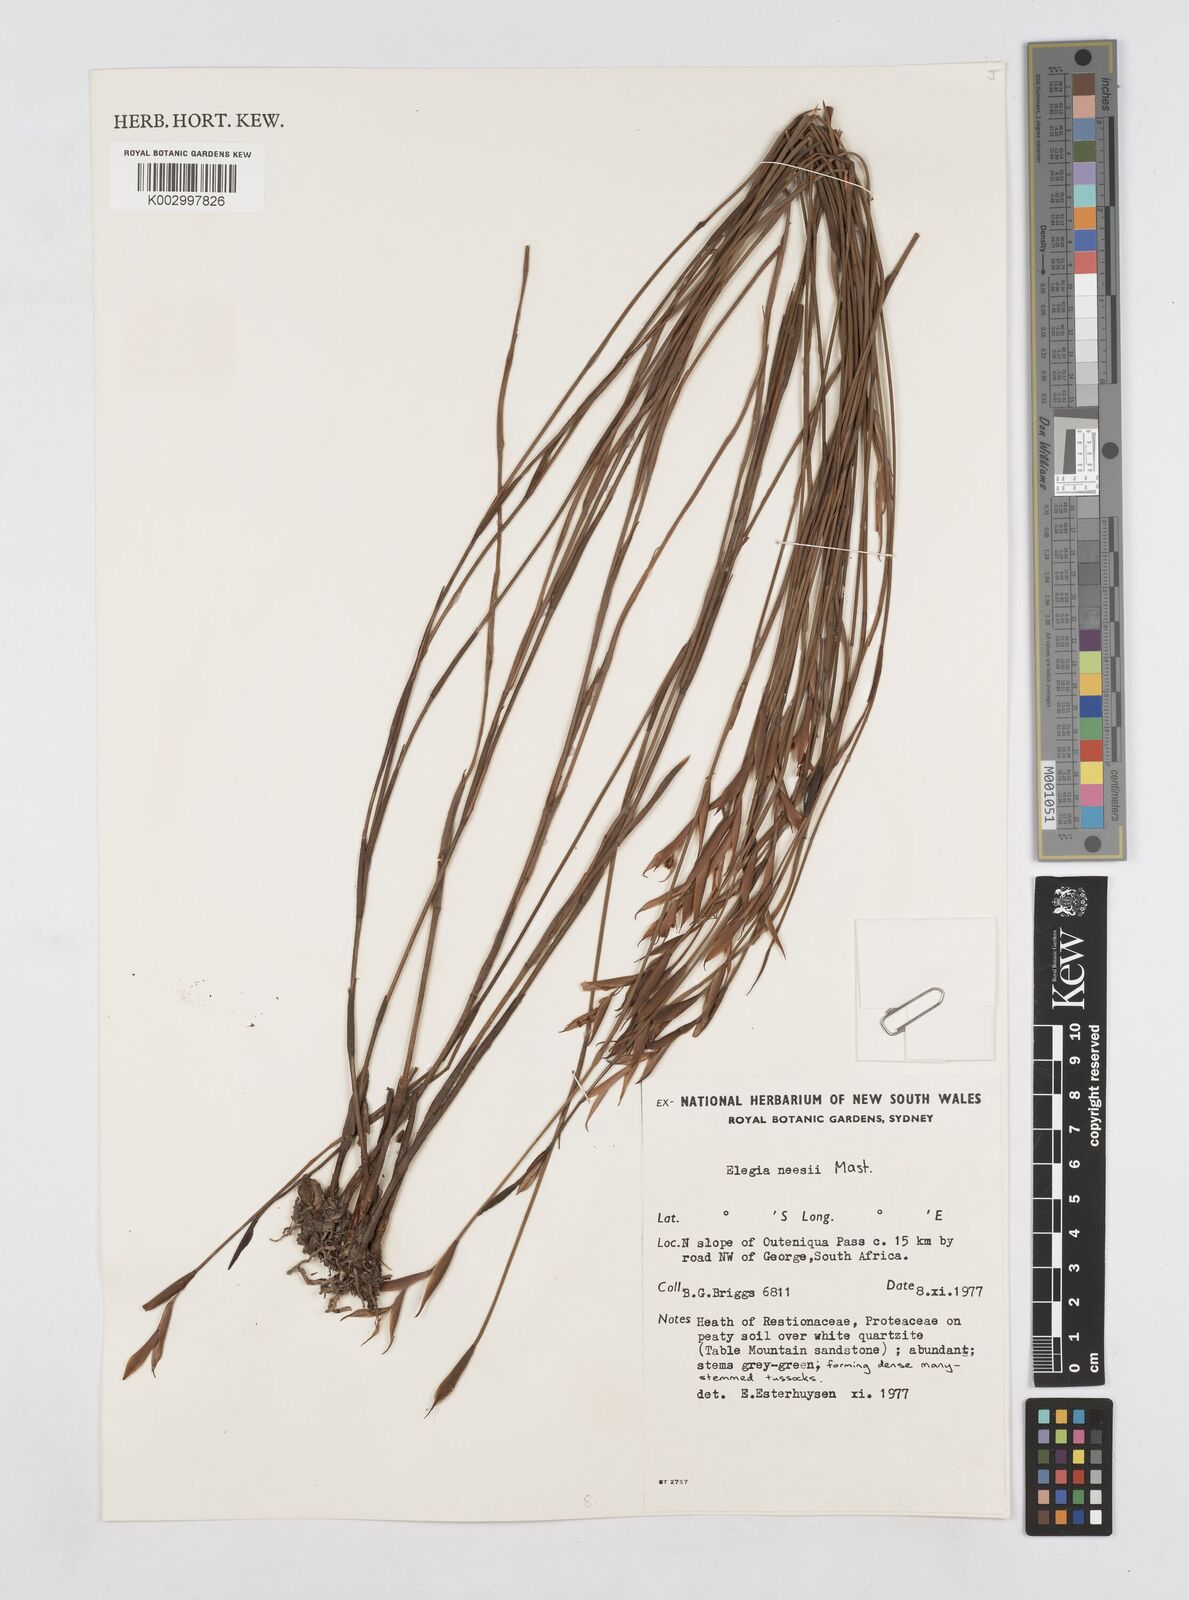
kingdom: Plantae
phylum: Tracheophyta
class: Liliopsida
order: Poales
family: Restionaceae
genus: Elegia
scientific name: Elegia neesii
